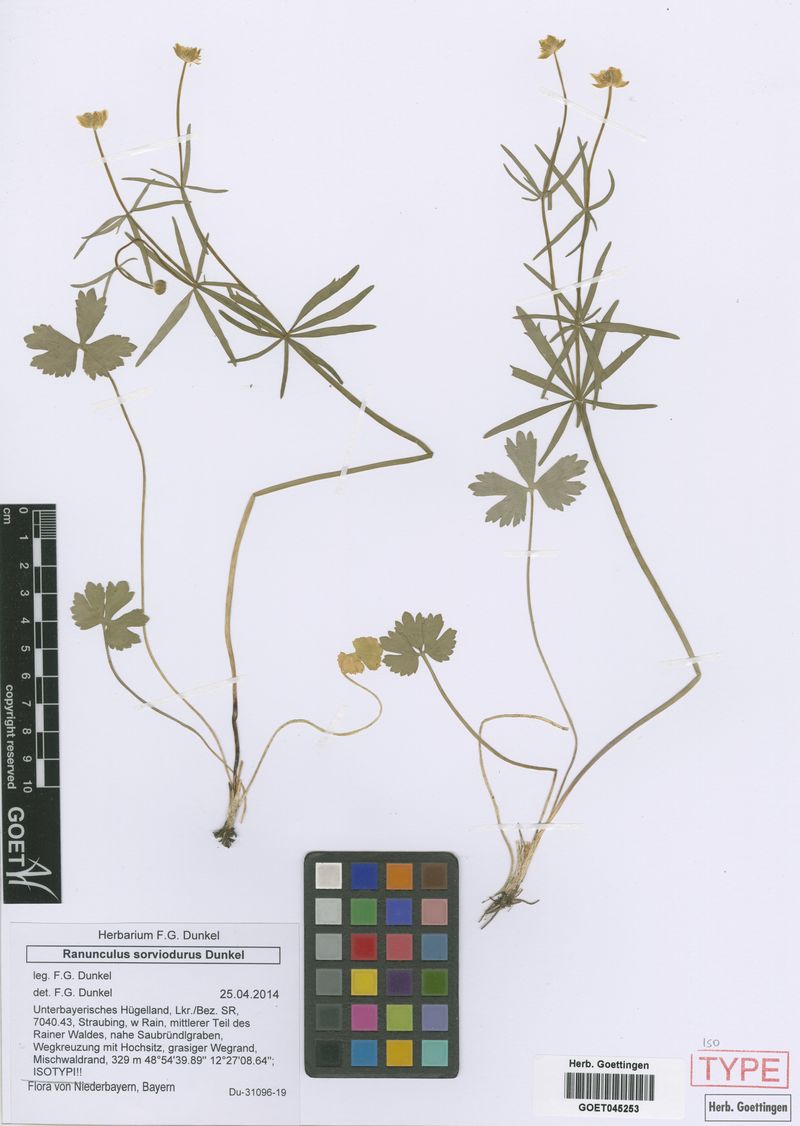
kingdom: Plantae
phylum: Tracheophyta
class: Magnoliopsida
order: Ranunculales
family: Ranunculaceae
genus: Ranunculus
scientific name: Ranunculus sorviodurus
